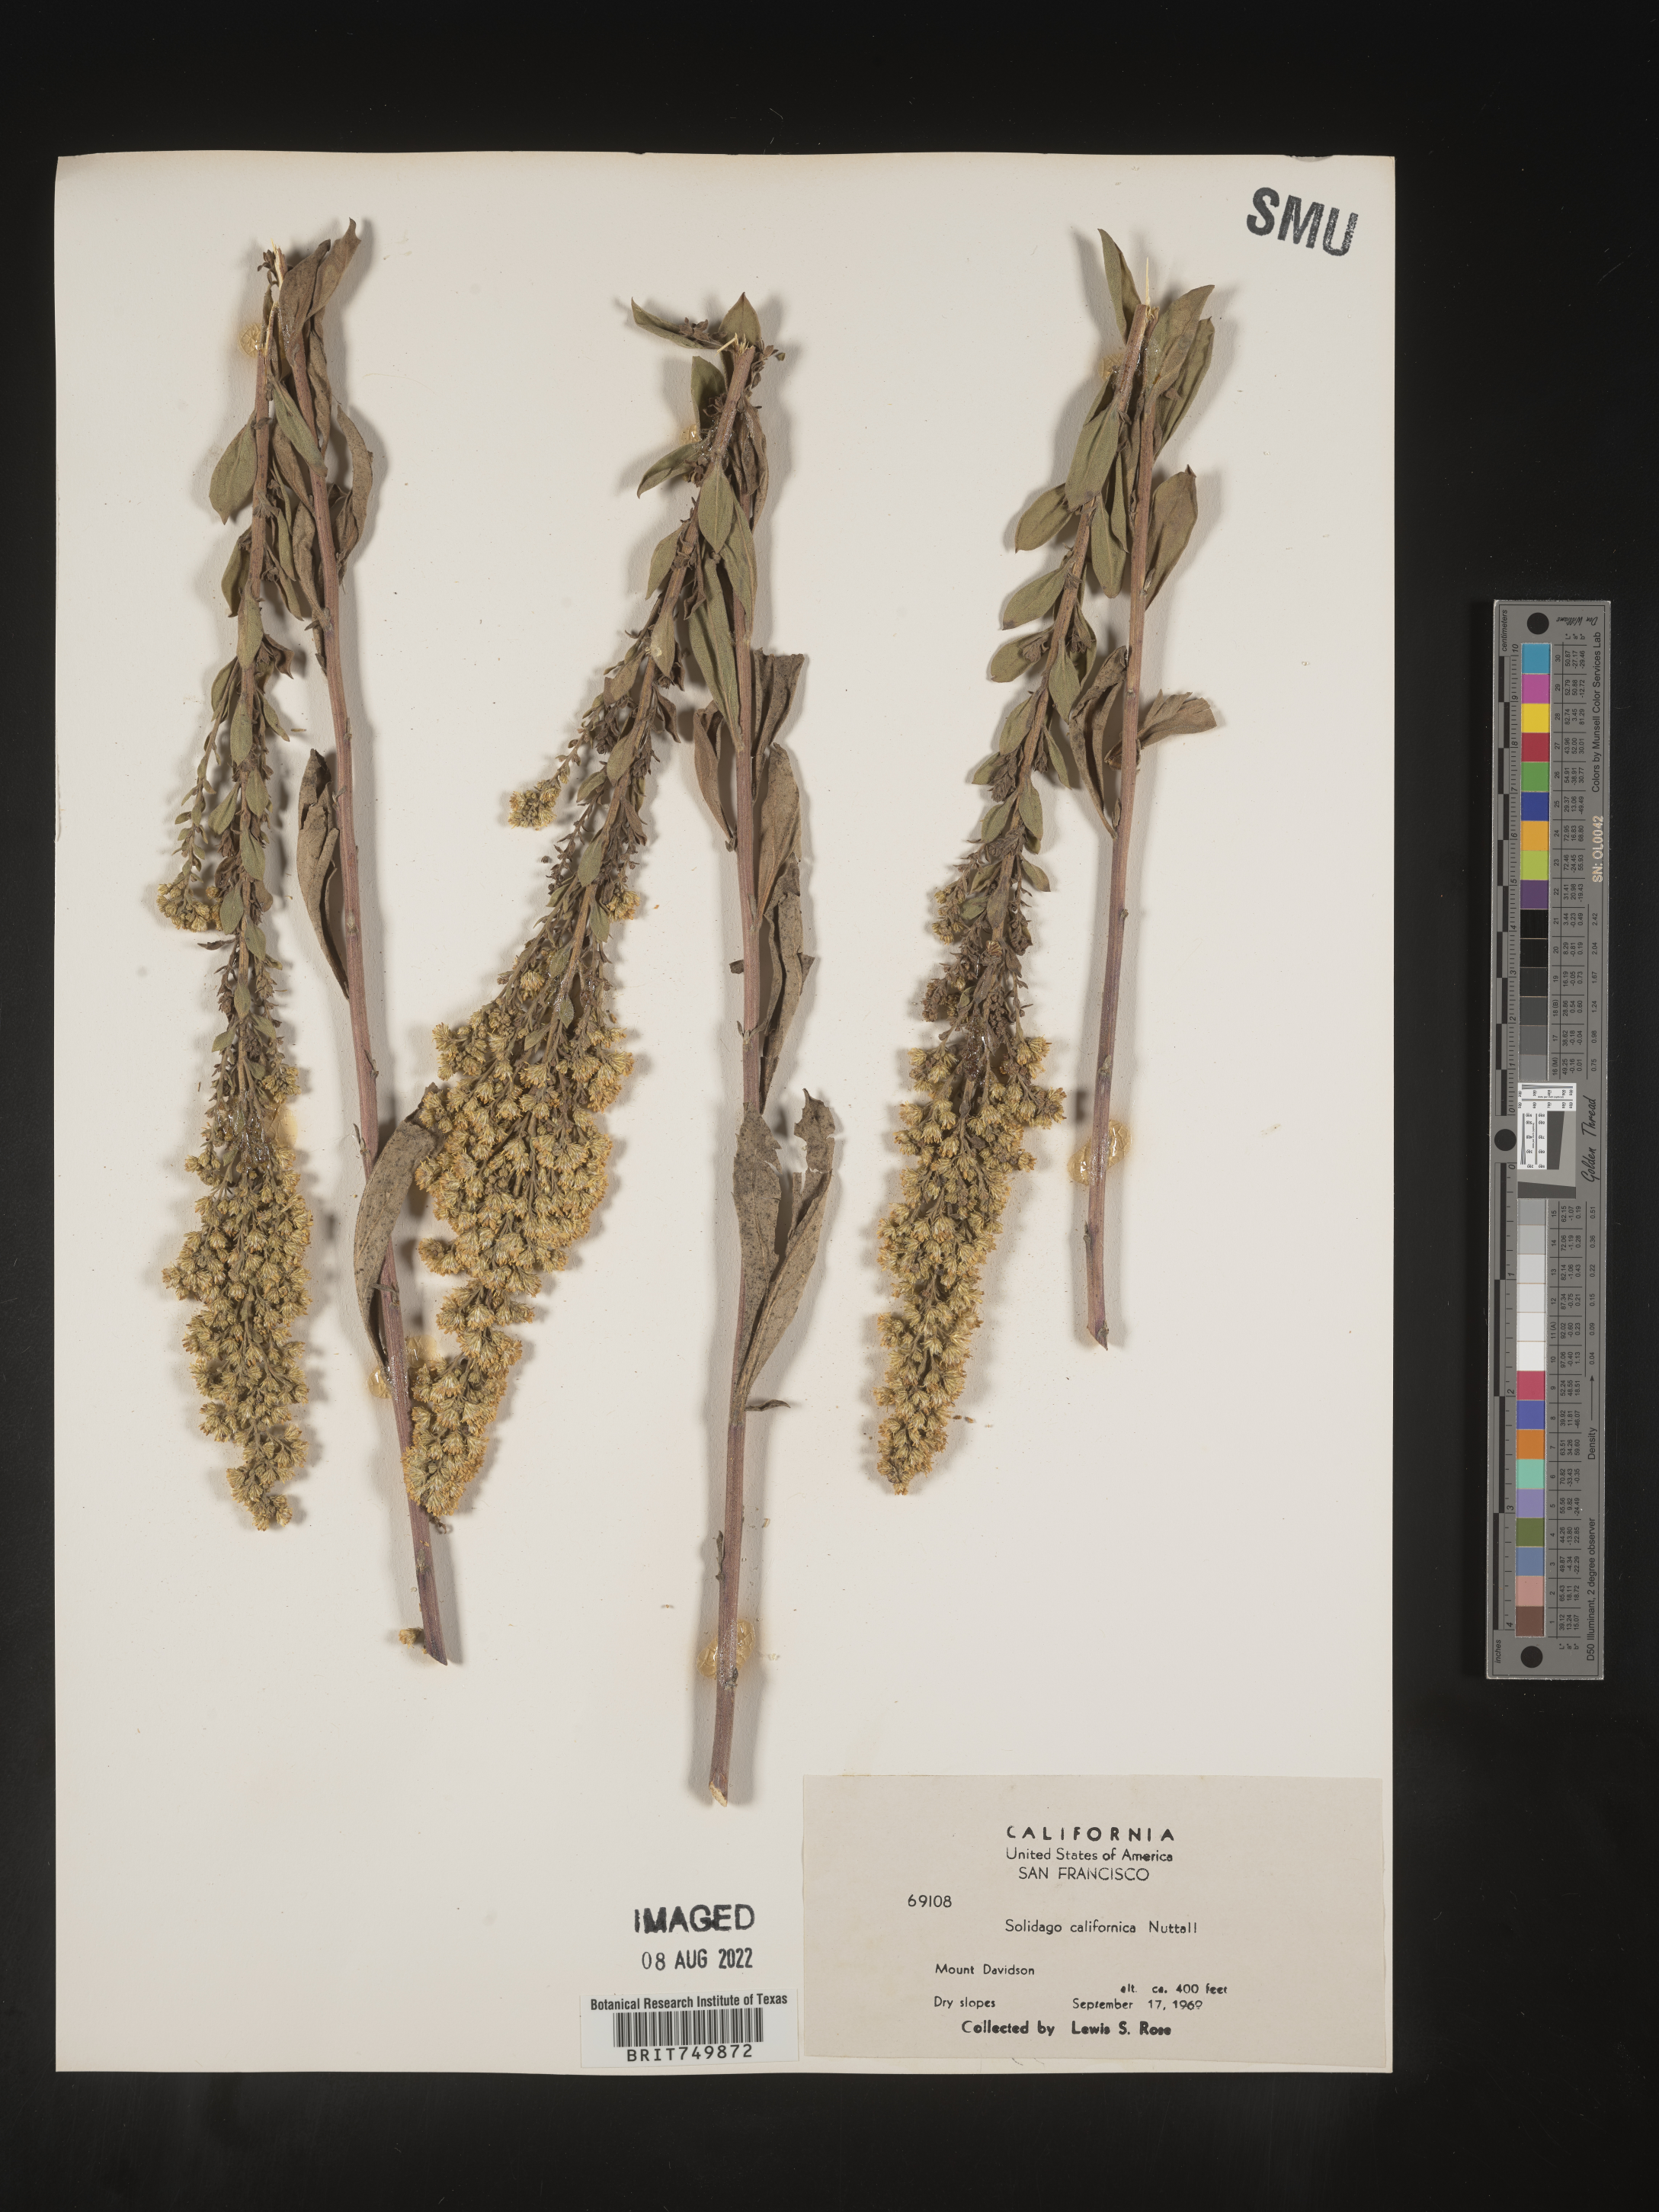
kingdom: Plantae
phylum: Tracheophyta
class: Magnoliopsida
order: Asterales
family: Asteraceae
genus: Solidago
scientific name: Solidago californica
